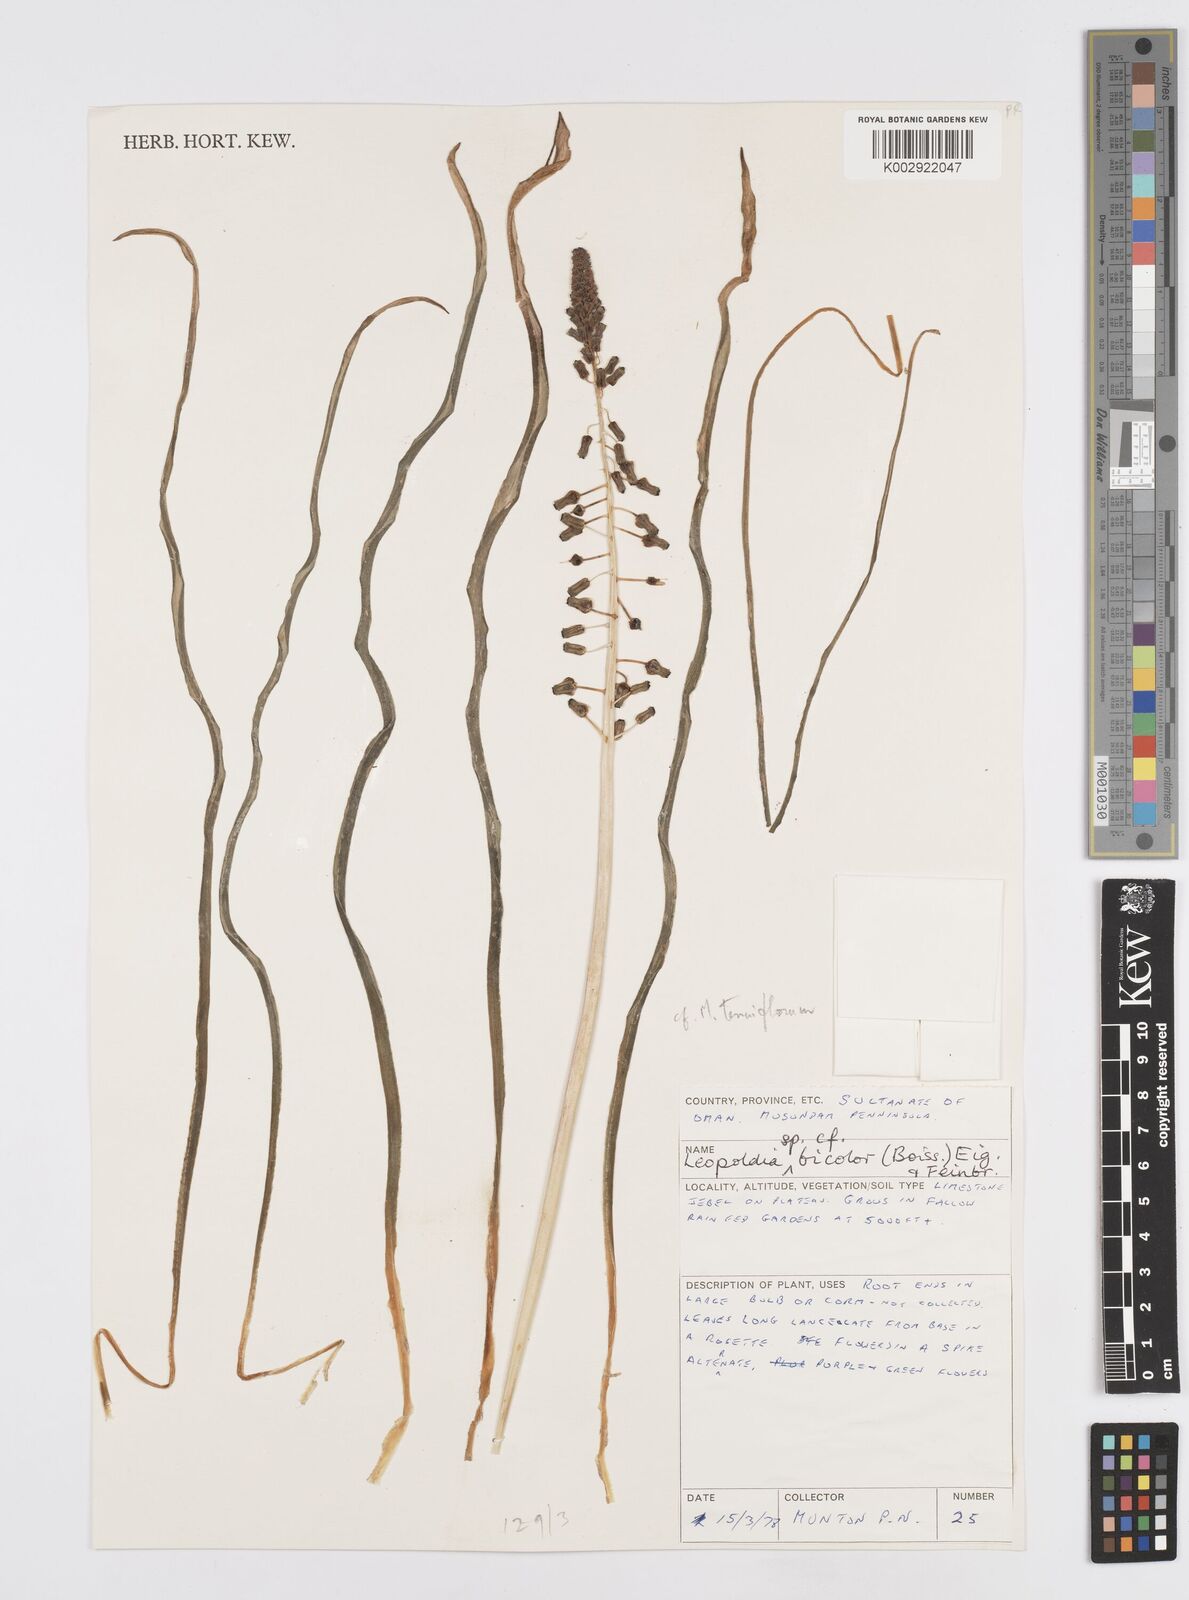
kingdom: Plantae
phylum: Tracheophyta
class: Liliopsida
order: Asparagales
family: Asparagaceae
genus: Muscari
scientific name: Muscari bicolor
